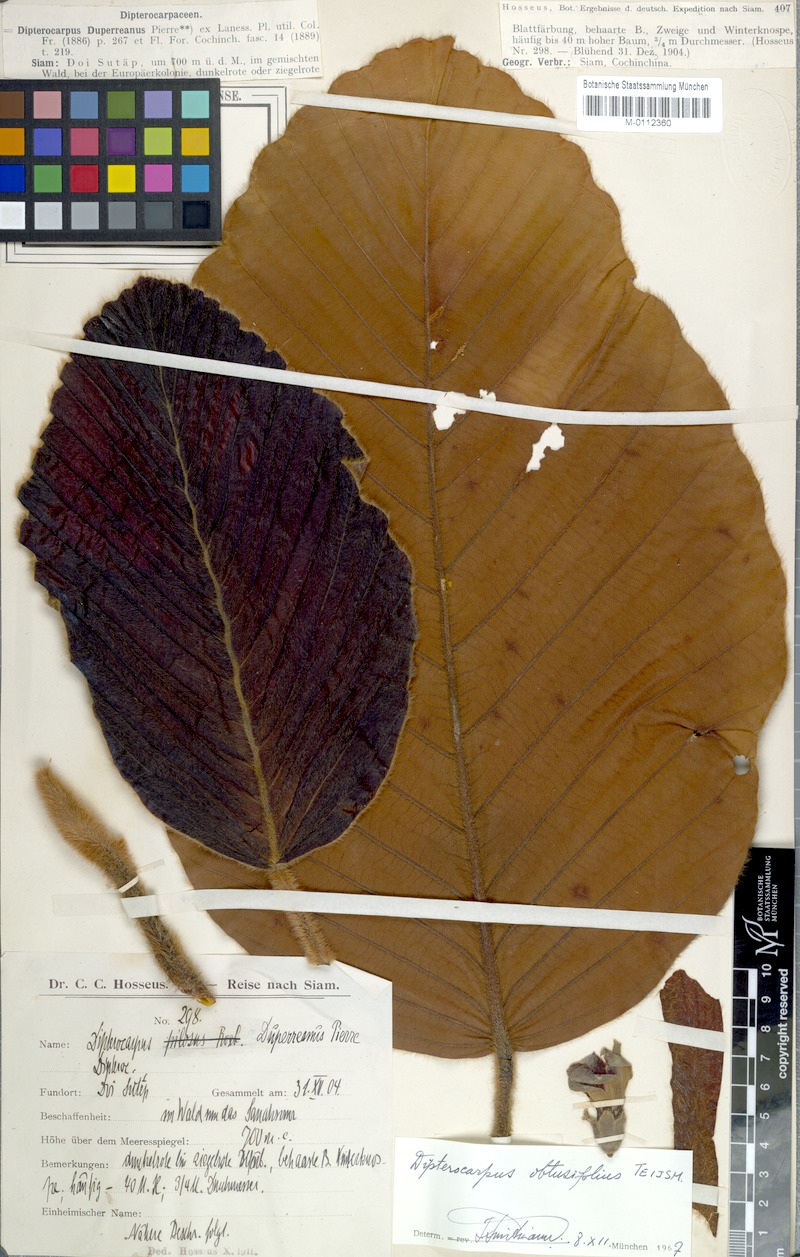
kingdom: Plantae
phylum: Tracheophyta
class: Magnoliopsida
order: Malvales
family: Dipterocarpaceae
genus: Dipterocarpus
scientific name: Dipterocarpus obtusifolius
